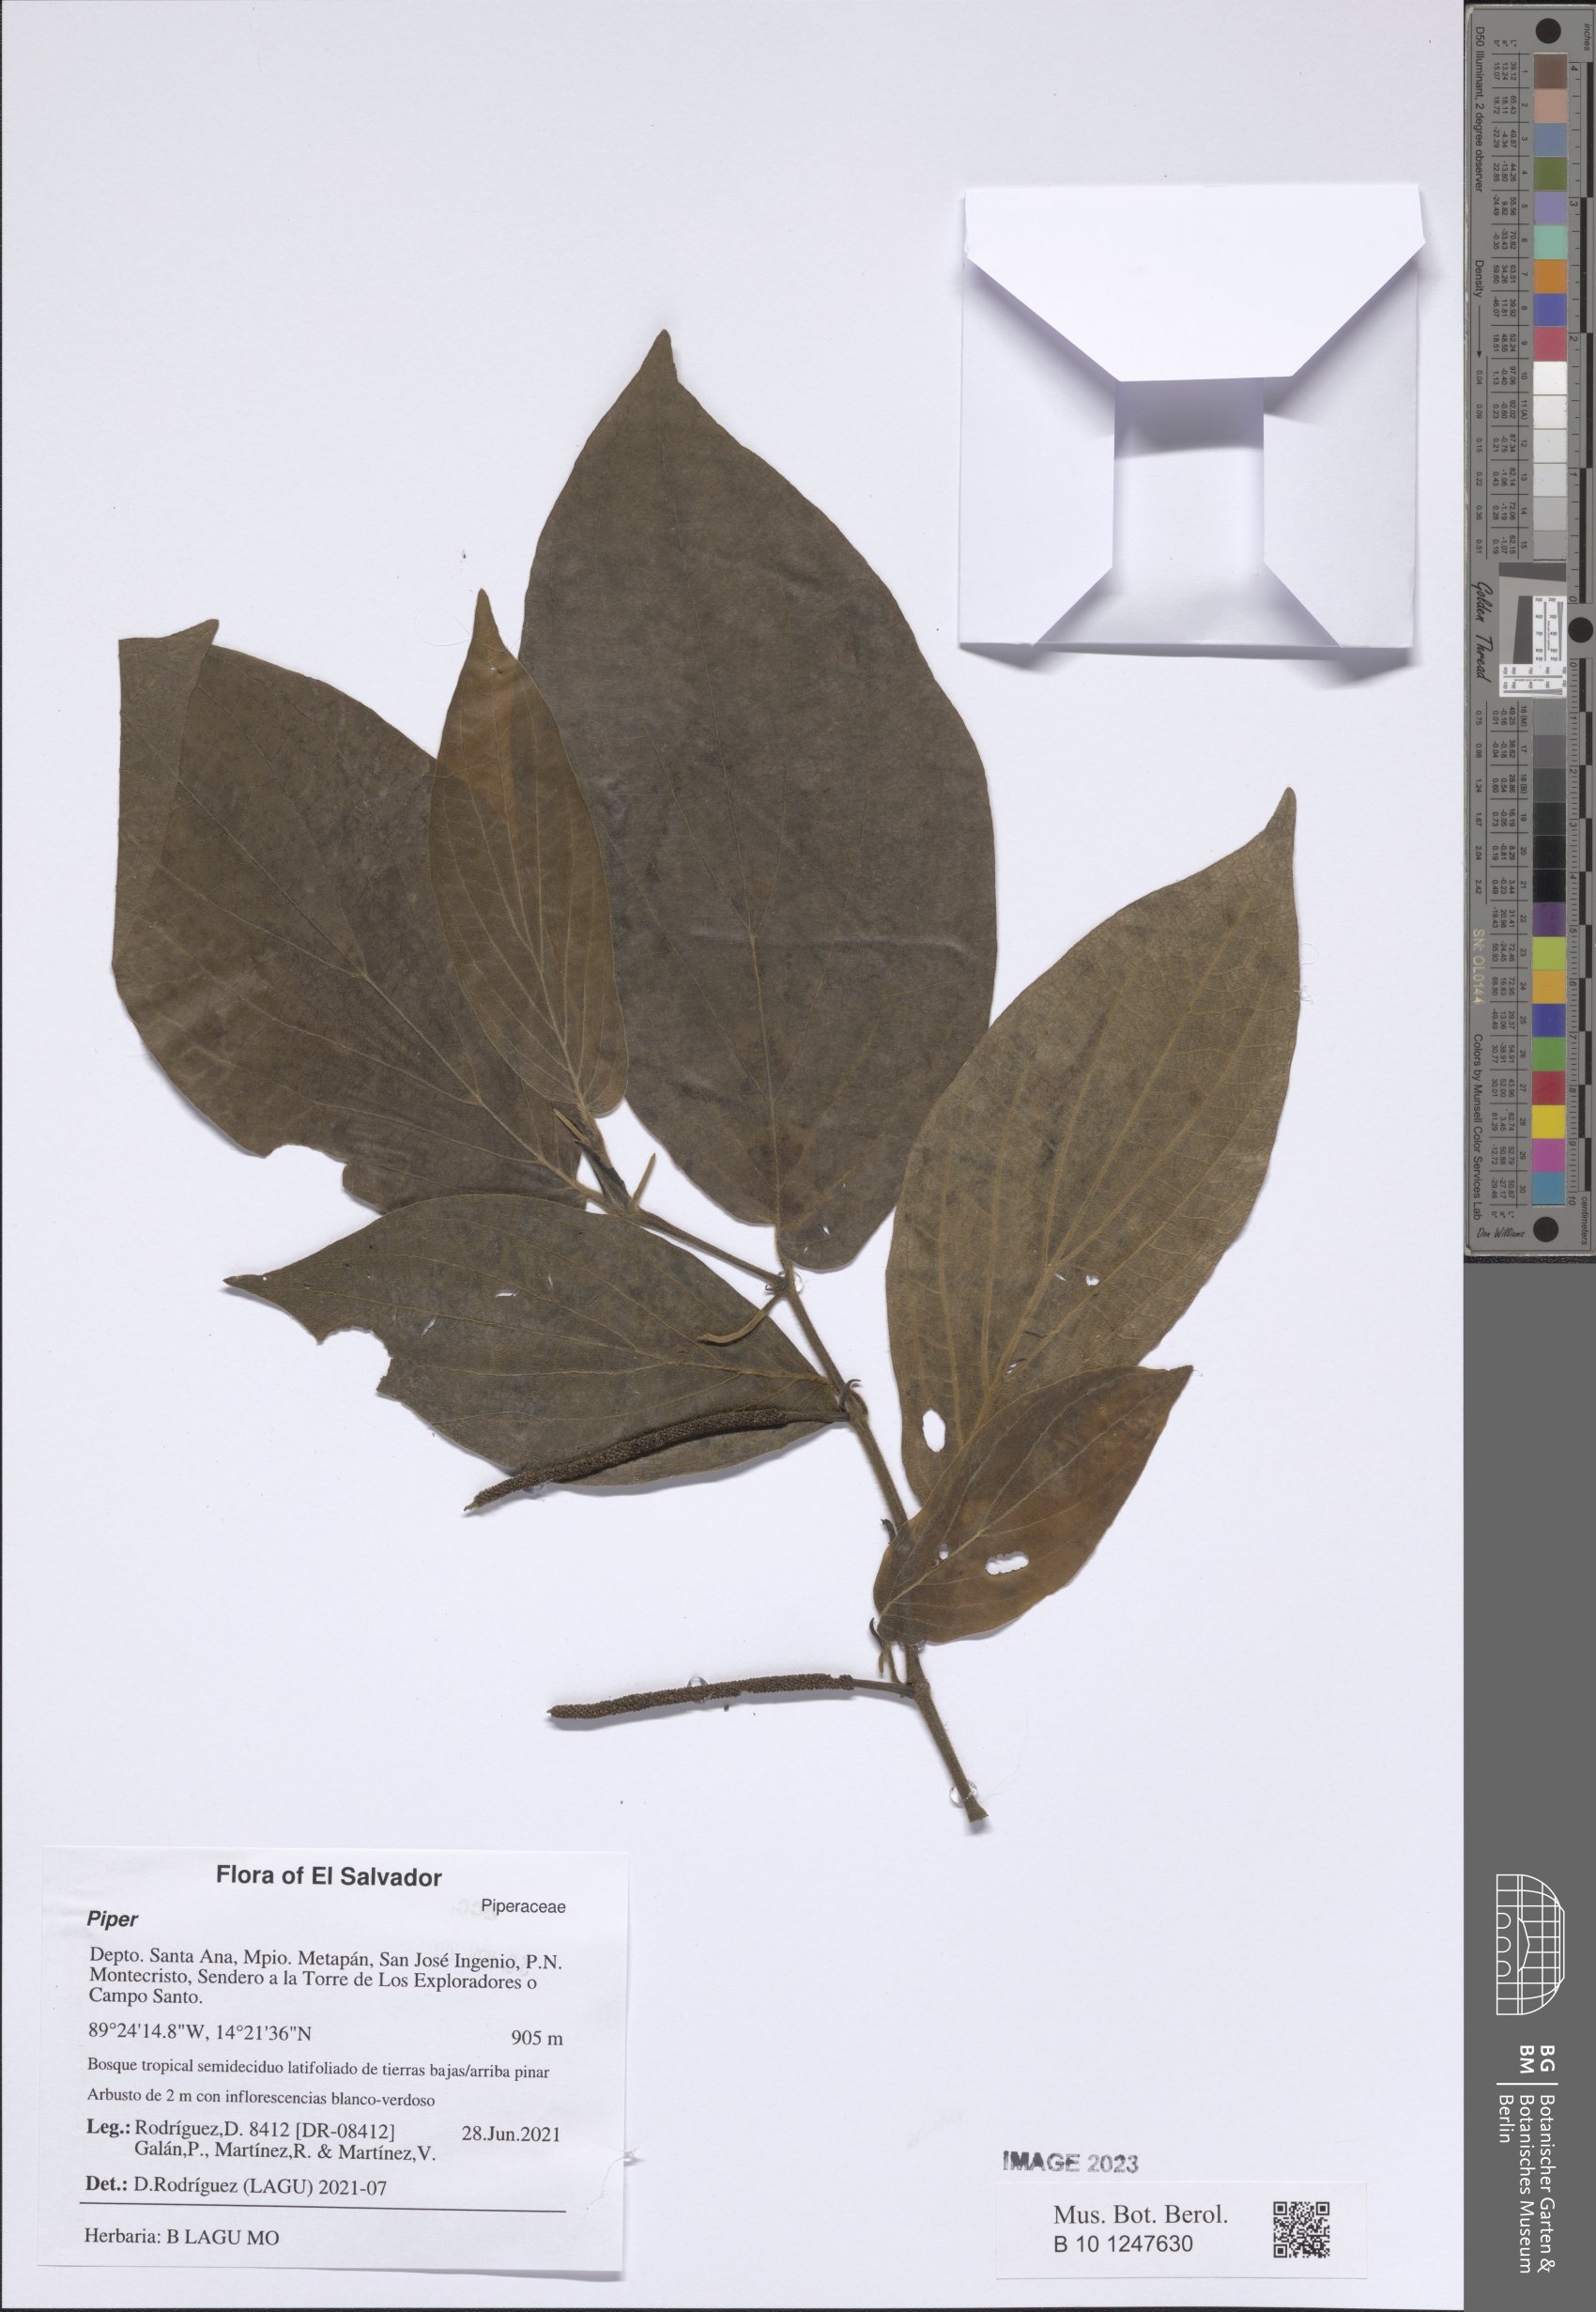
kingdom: Plantae
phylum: Tracheophyta
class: Magnoliopsida
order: Piperales
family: Piperaceae
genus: Piper
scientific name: Piper
